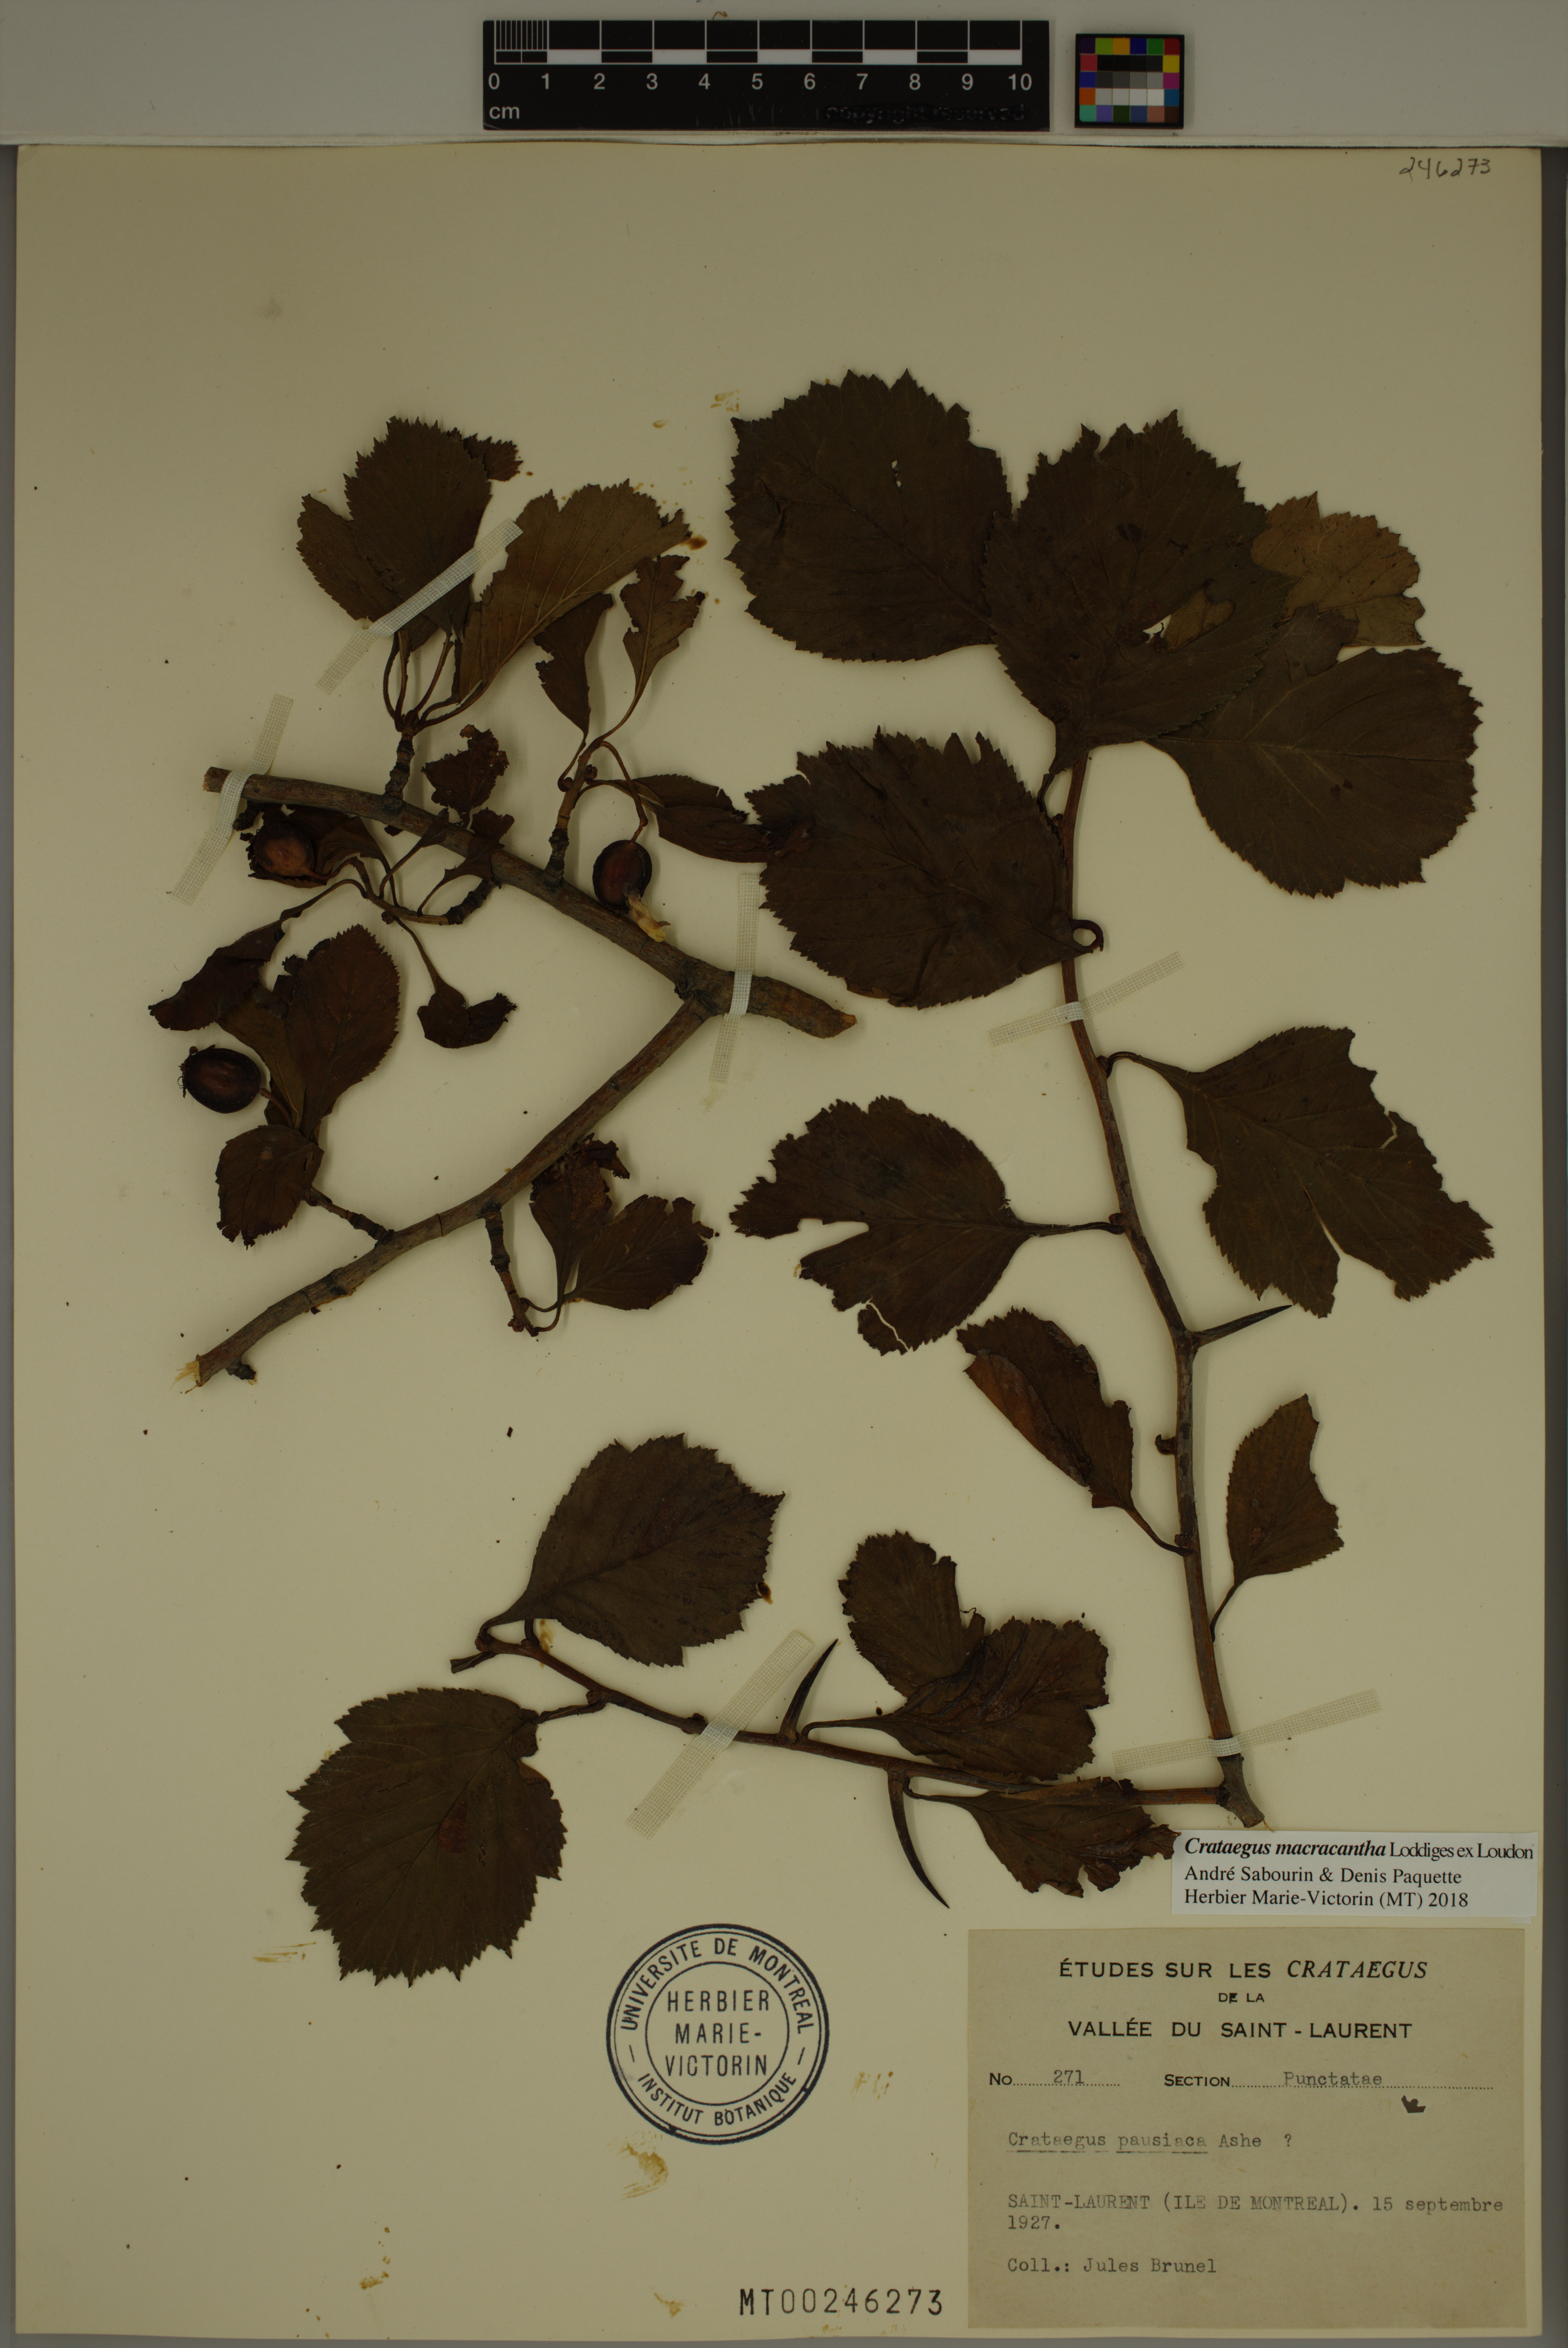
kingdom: Plantae
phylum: Tracheophyta
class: Magnoliopsida
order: Rosales
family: Rosaceae
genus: Crataegus
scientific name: Crataegus macracantha
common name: Large-thorn hawthorn
